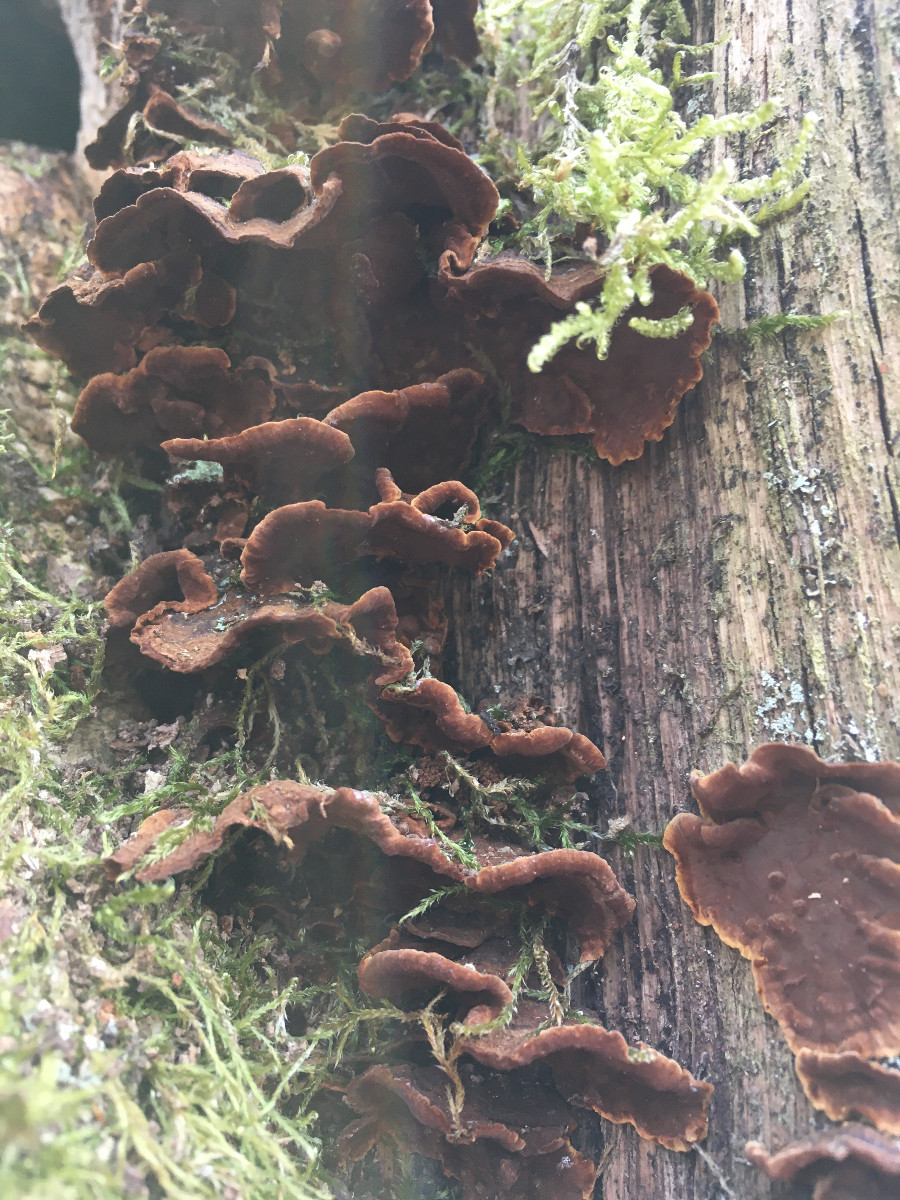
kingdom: Fungi
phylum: Basidiomycota
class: Agaricomycetes
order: Hymenochaetales
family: Hymenochaetaceae
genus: Hymenochaete
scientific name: Hymenochaete rubiginosa
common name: stiv ruslædersvamp
